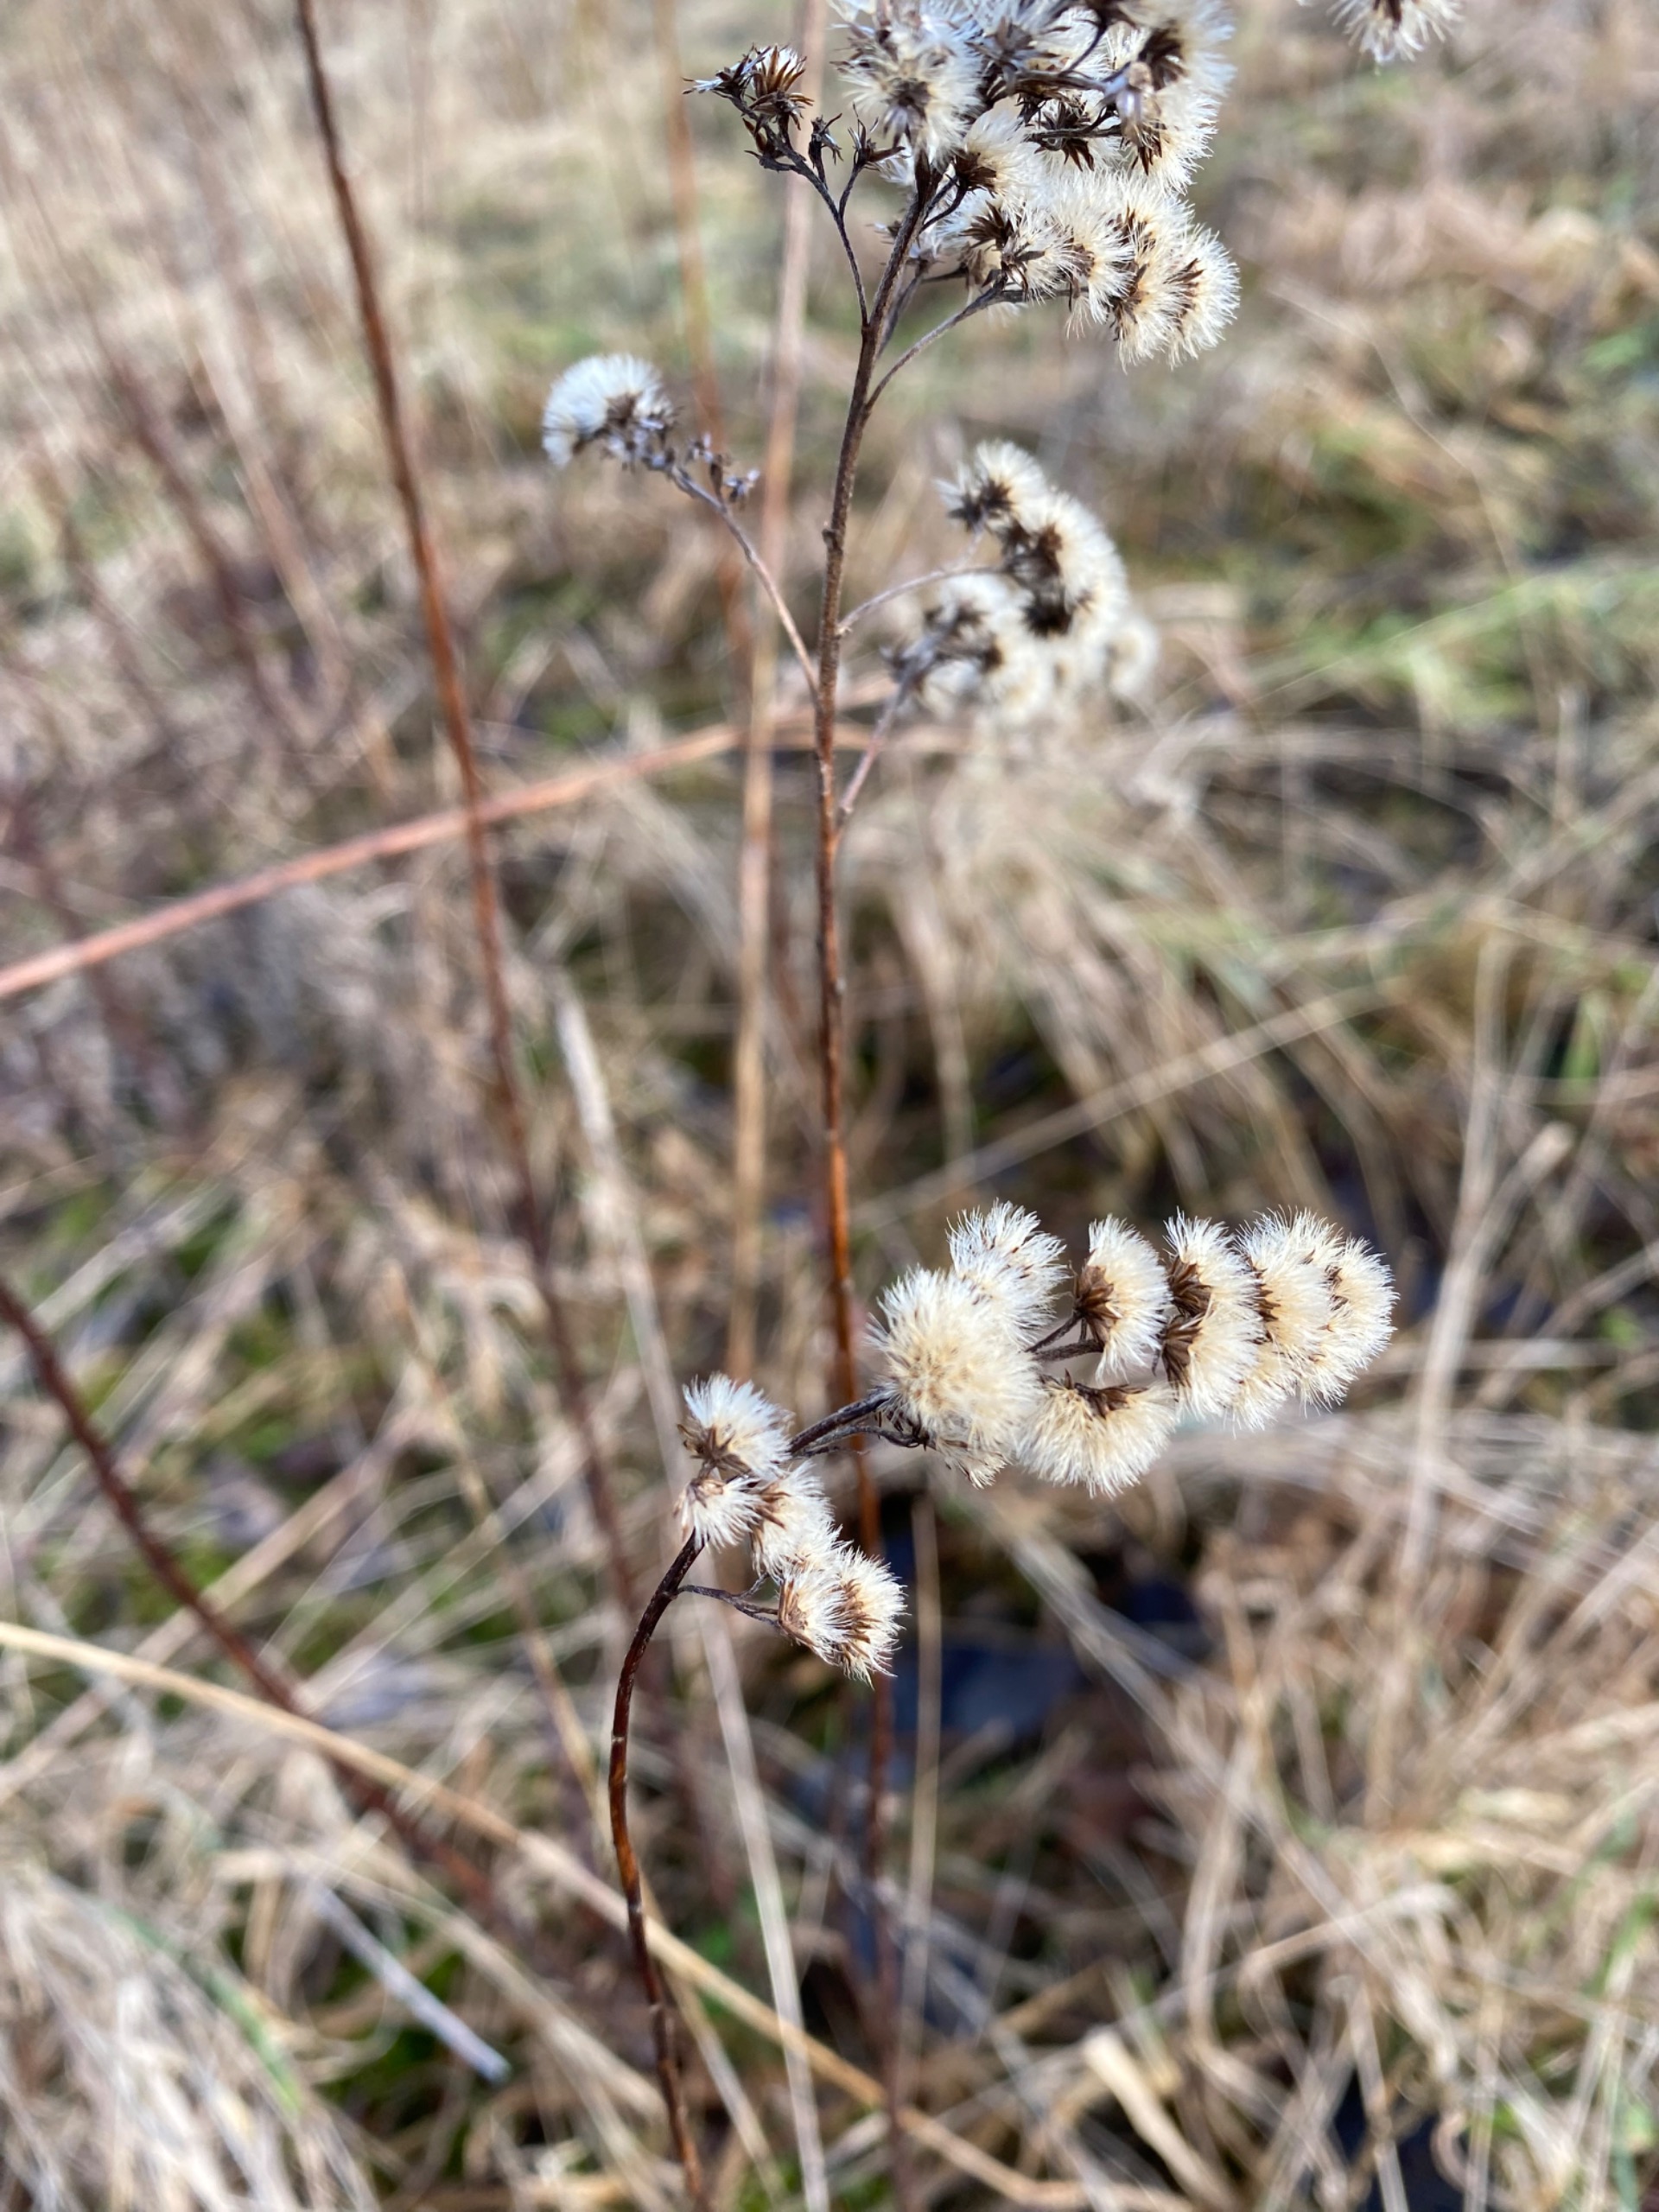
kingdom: Plantae
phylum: Tracheophyta
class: Magnoliopsida
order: Asterales
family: Asteraceae
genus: Solidago
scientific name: Solidago canadensis
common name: Kanadisk gyldenris
